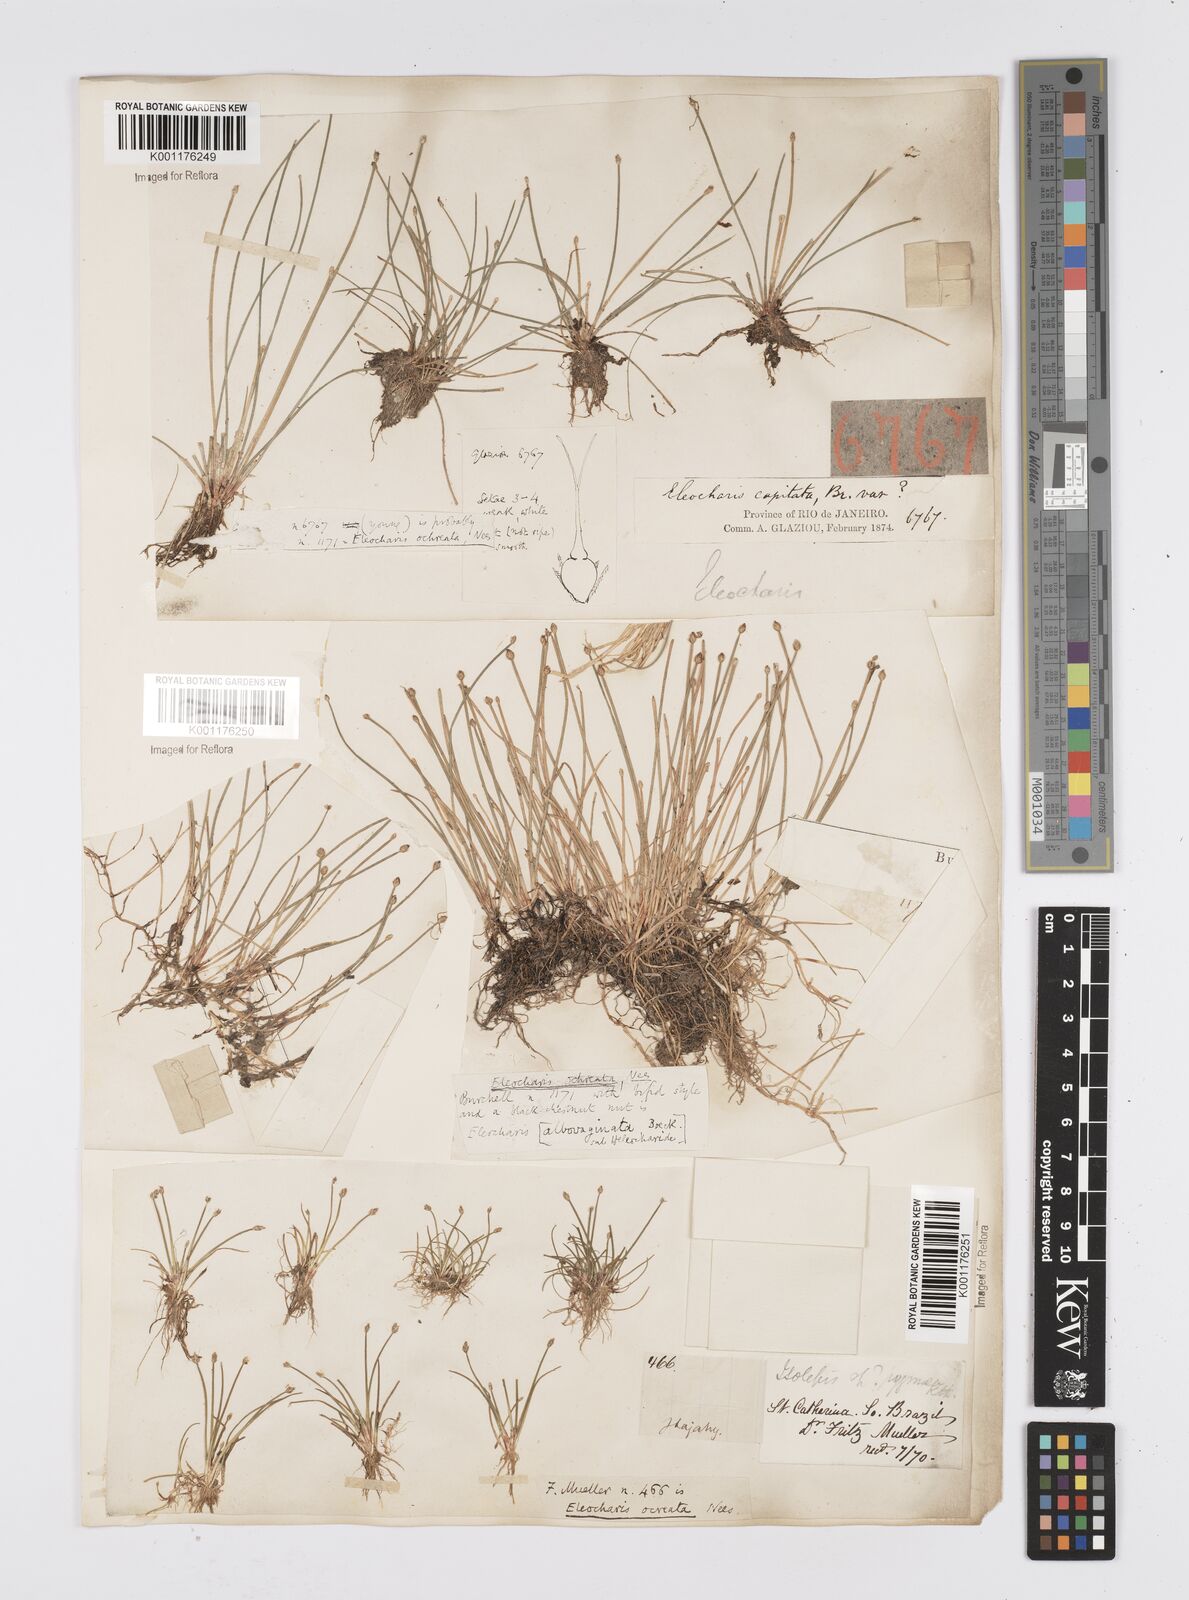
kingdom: Plantae
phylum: Tracheophyta
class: Liliopsida
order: Poales
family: Cyperaceae
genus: Eleocharis
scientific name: Eleocharis flavescens
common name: Yellow spikerush
